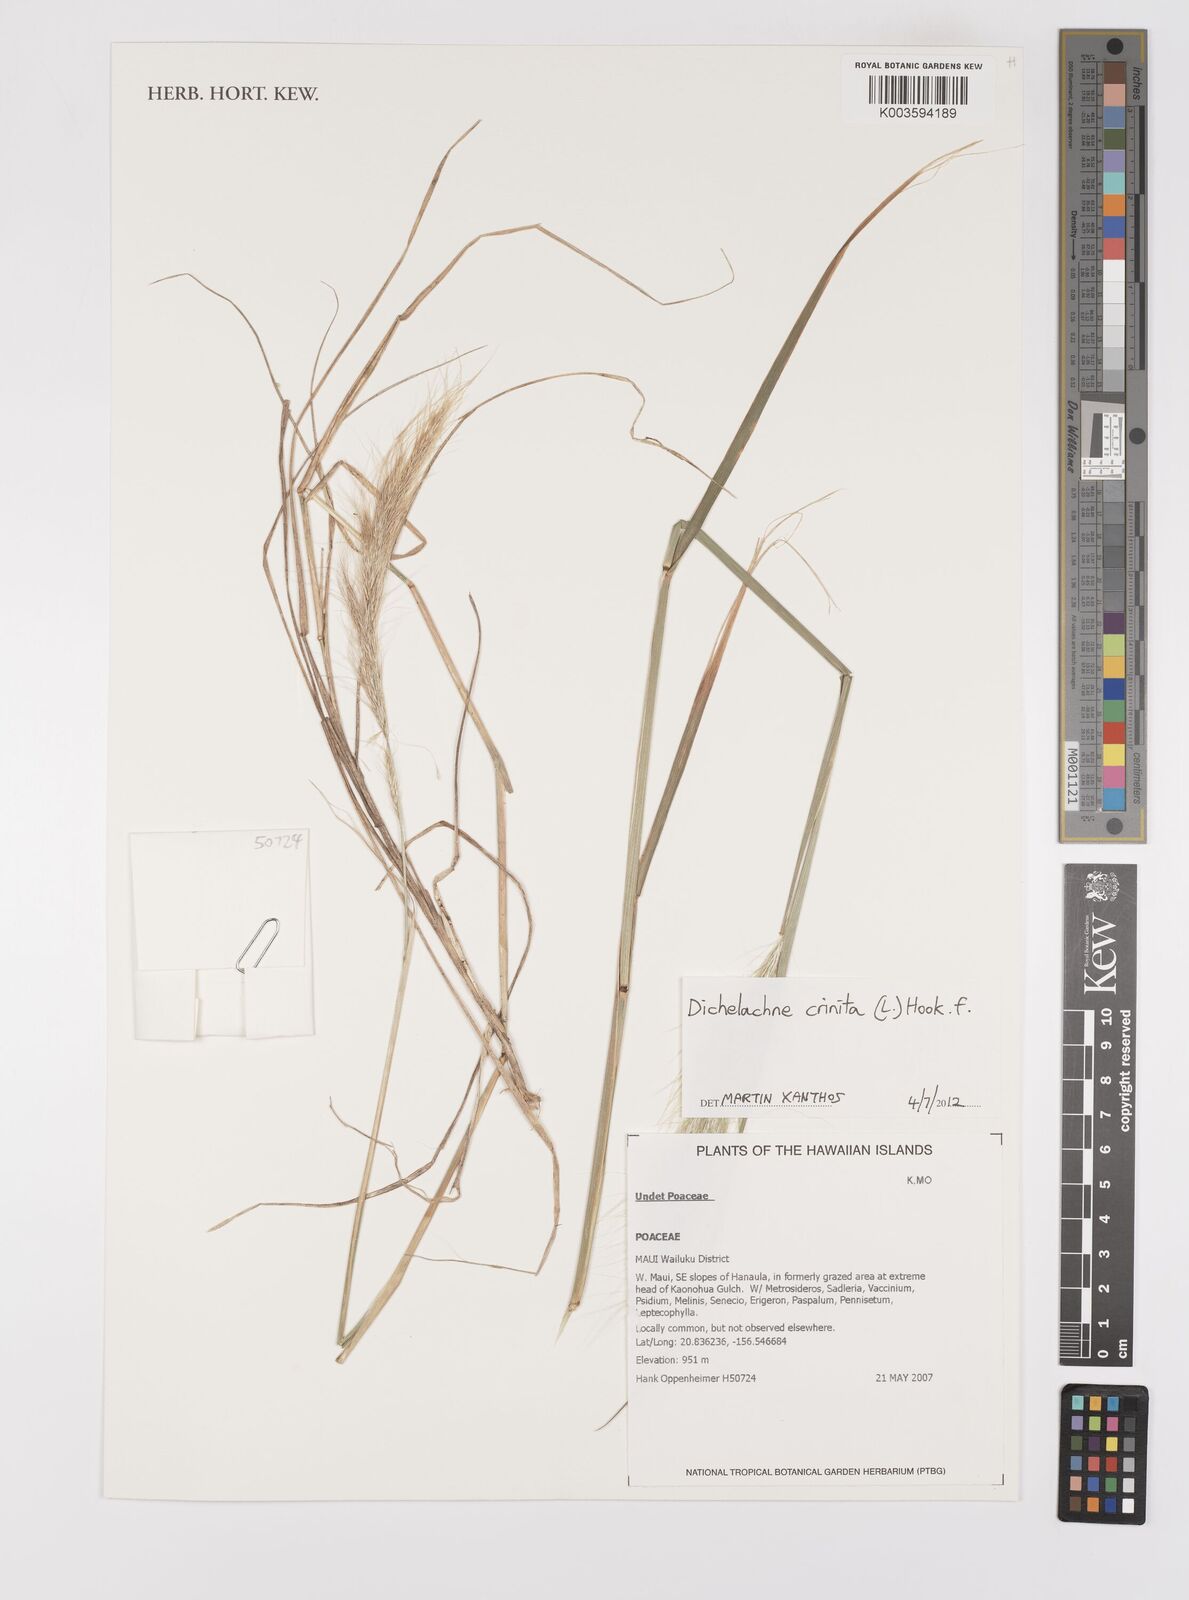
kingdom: Plantae
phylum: Tracheophyta
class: Liliopsida
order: Poales
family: Poaceae
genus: Dichelachne
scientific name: Dichelachne crinita
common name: Clovenfoot plumegrass
